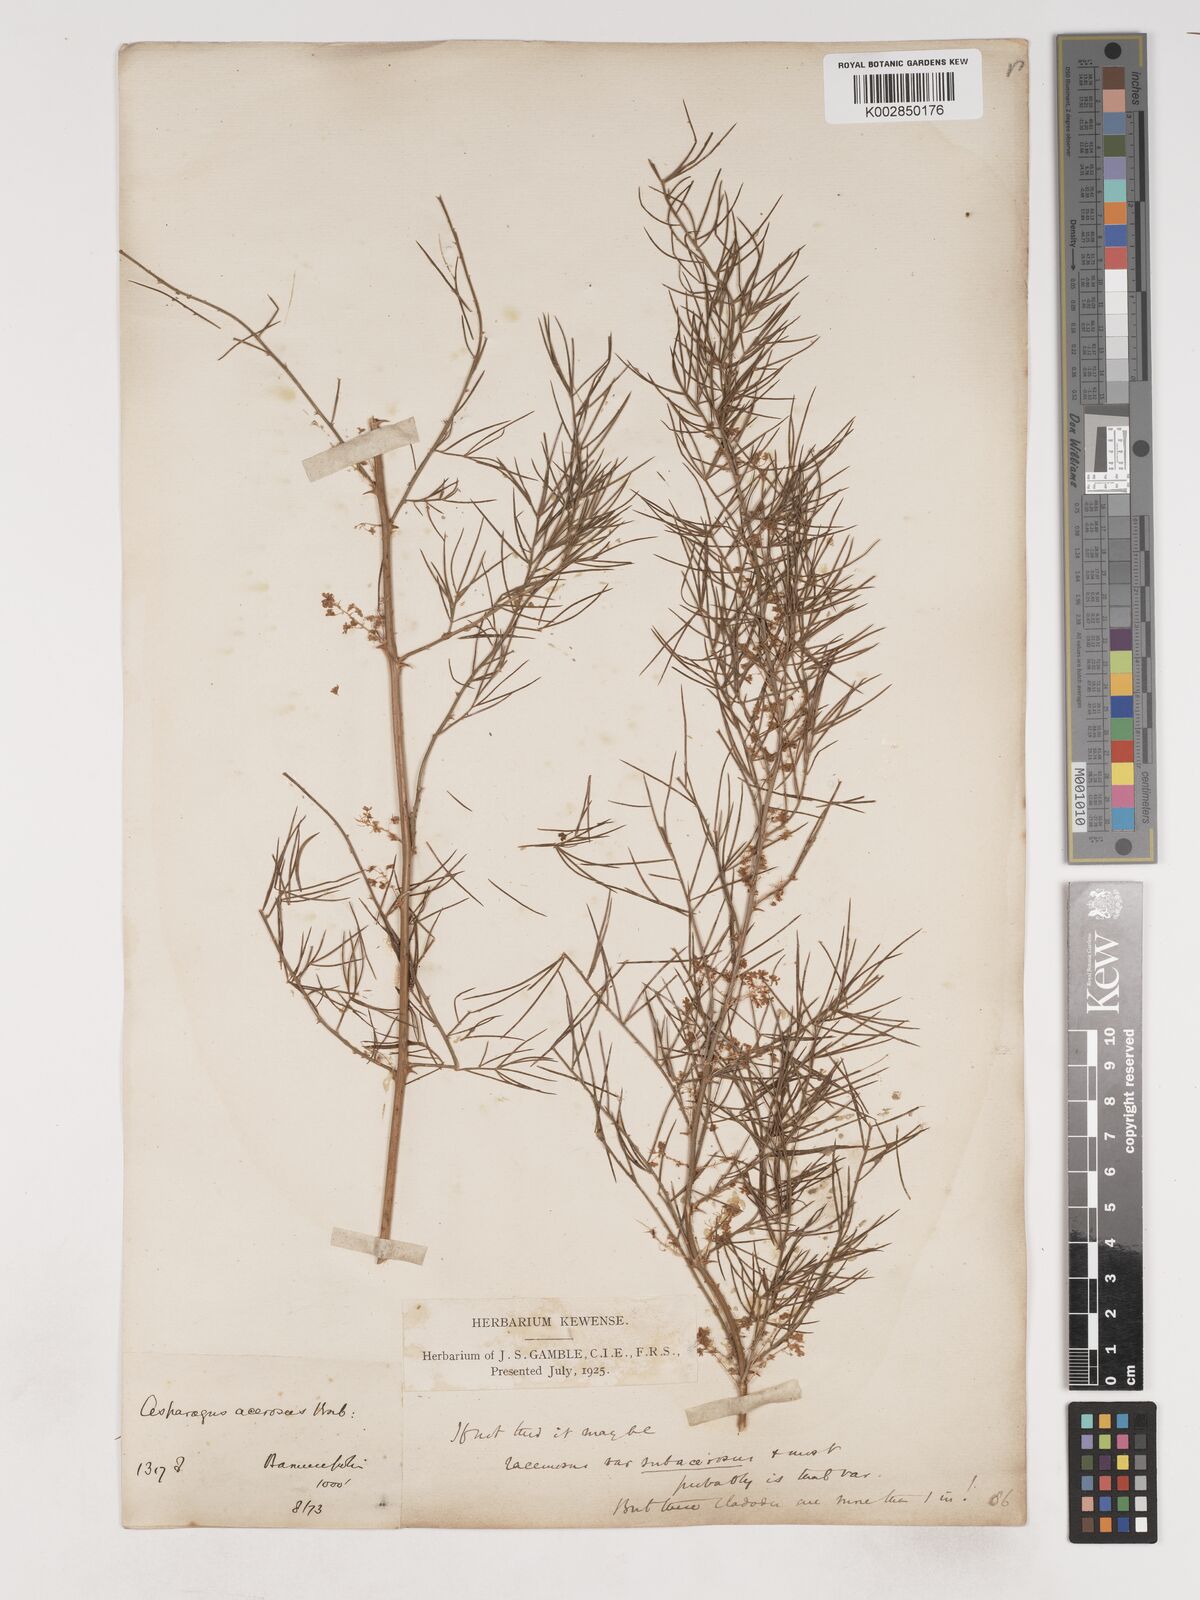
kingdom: Plantae
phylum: Tracheophyta
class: Liliopsida
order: Asparagales
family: Asparagaceae
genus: Asparagus
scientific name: Asparagus racemosus
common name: Asparagus-fern
